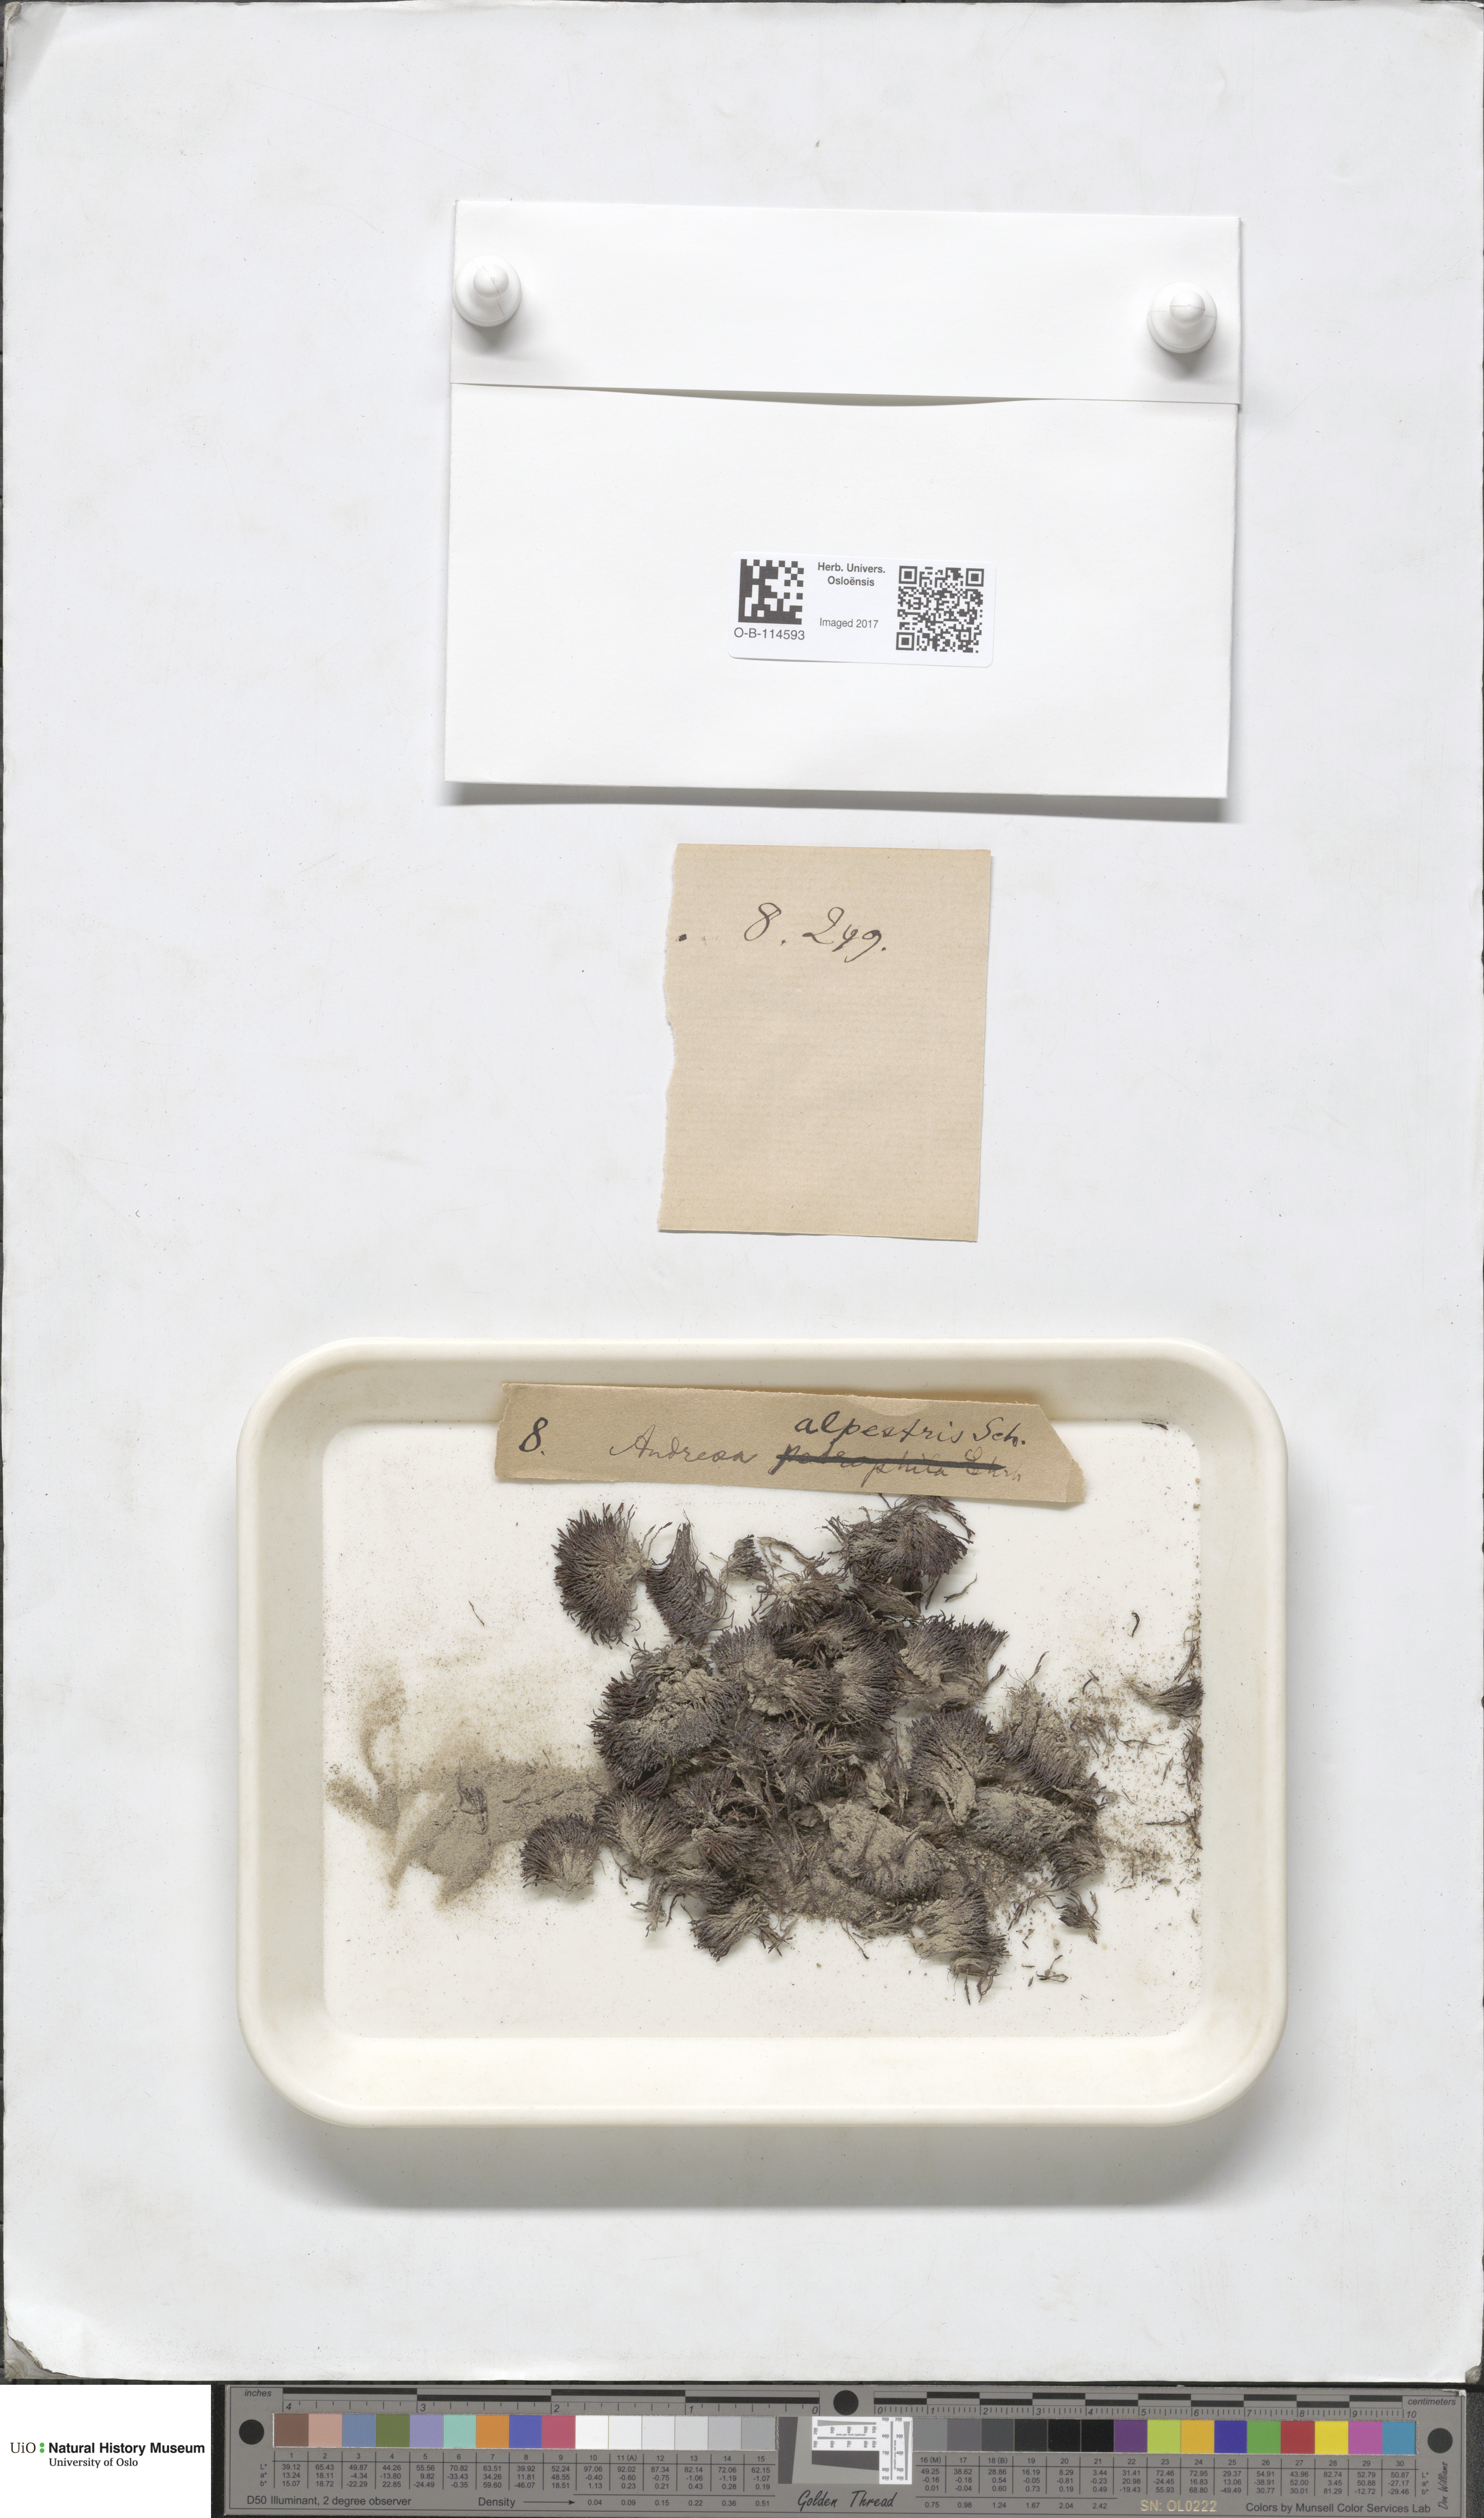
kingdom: Plantae
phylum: Bryophyta
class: Andreaeopsida
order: Andreaeales
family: Andreaeaceae
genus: Andreaea
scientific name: Andreaea alpestris
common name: Slender rock-moss
